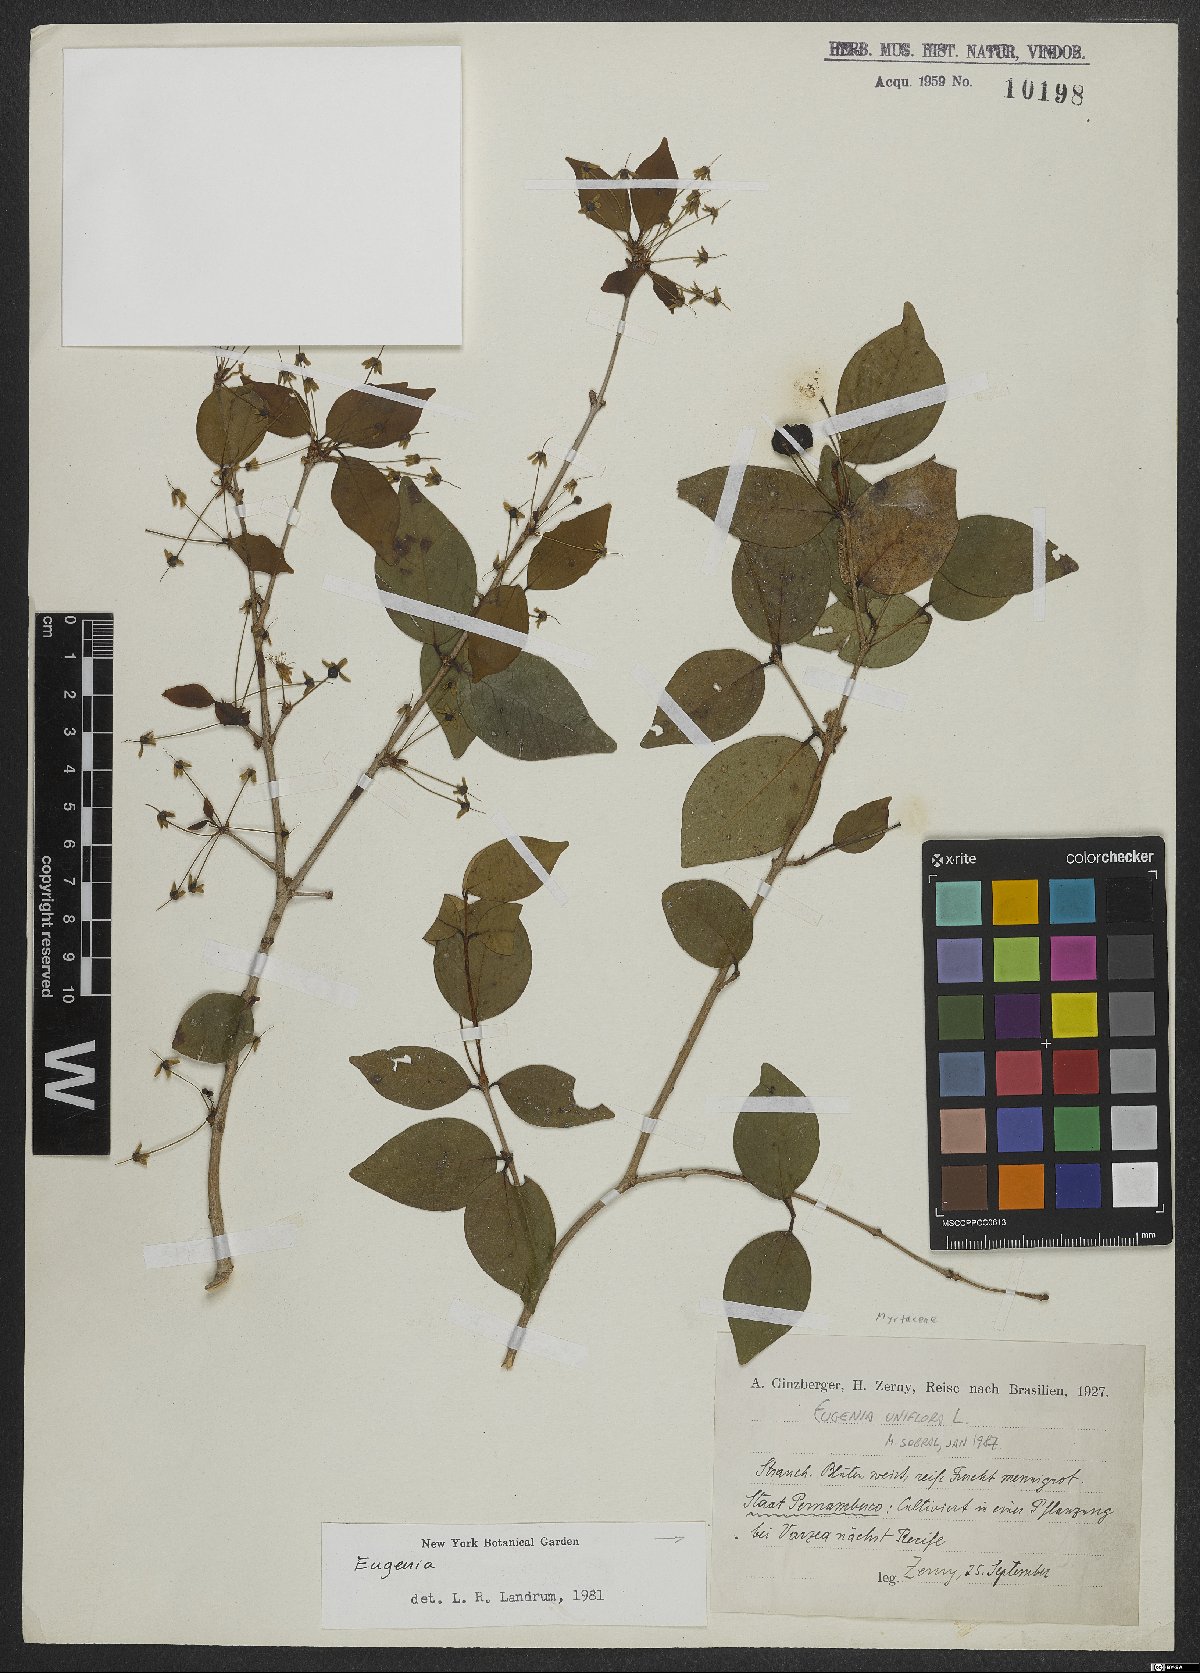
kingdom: Plantae
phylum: Tracheophyta
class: Magnoliopsida
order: Myrtales
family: Myrtaceae
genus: Eugenia
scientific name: Eugenia uniflora
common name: Surinam cherry
